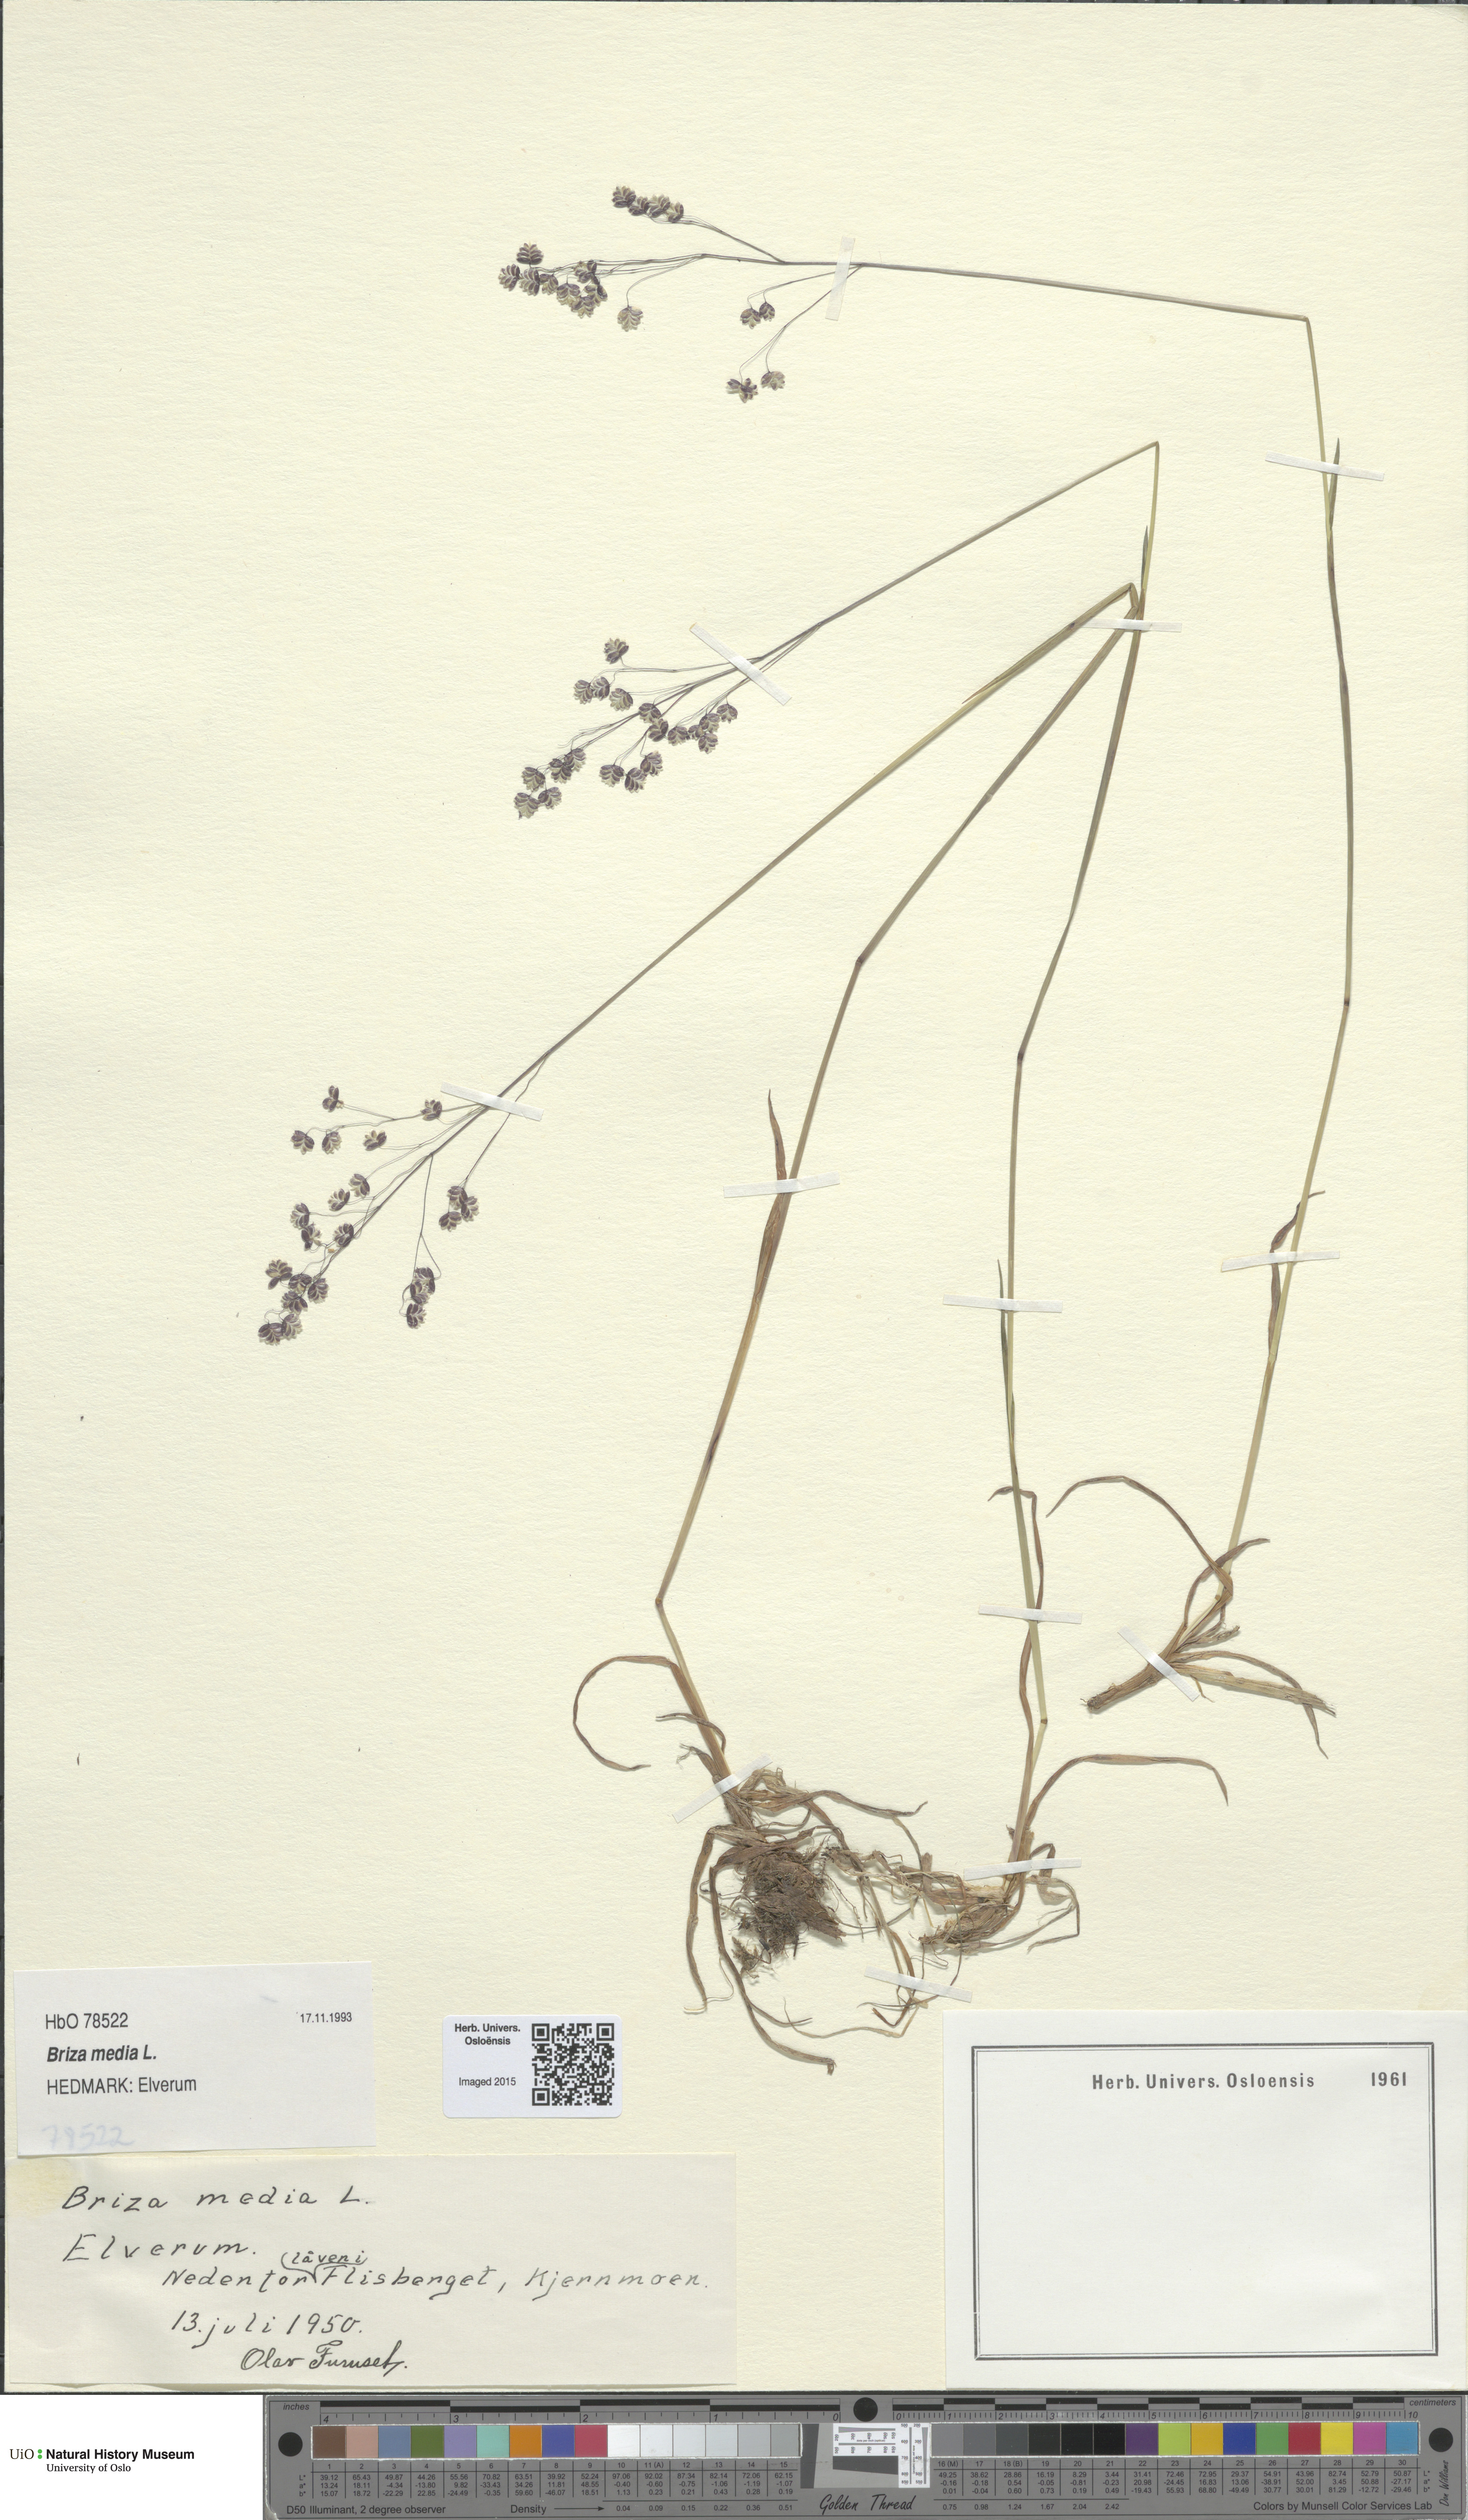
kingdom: Plantae
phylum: Tracheophyta
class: Liliopsida
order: Poales
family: Poaceae
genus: Briza
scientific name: Briza media
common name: Quaking grass
